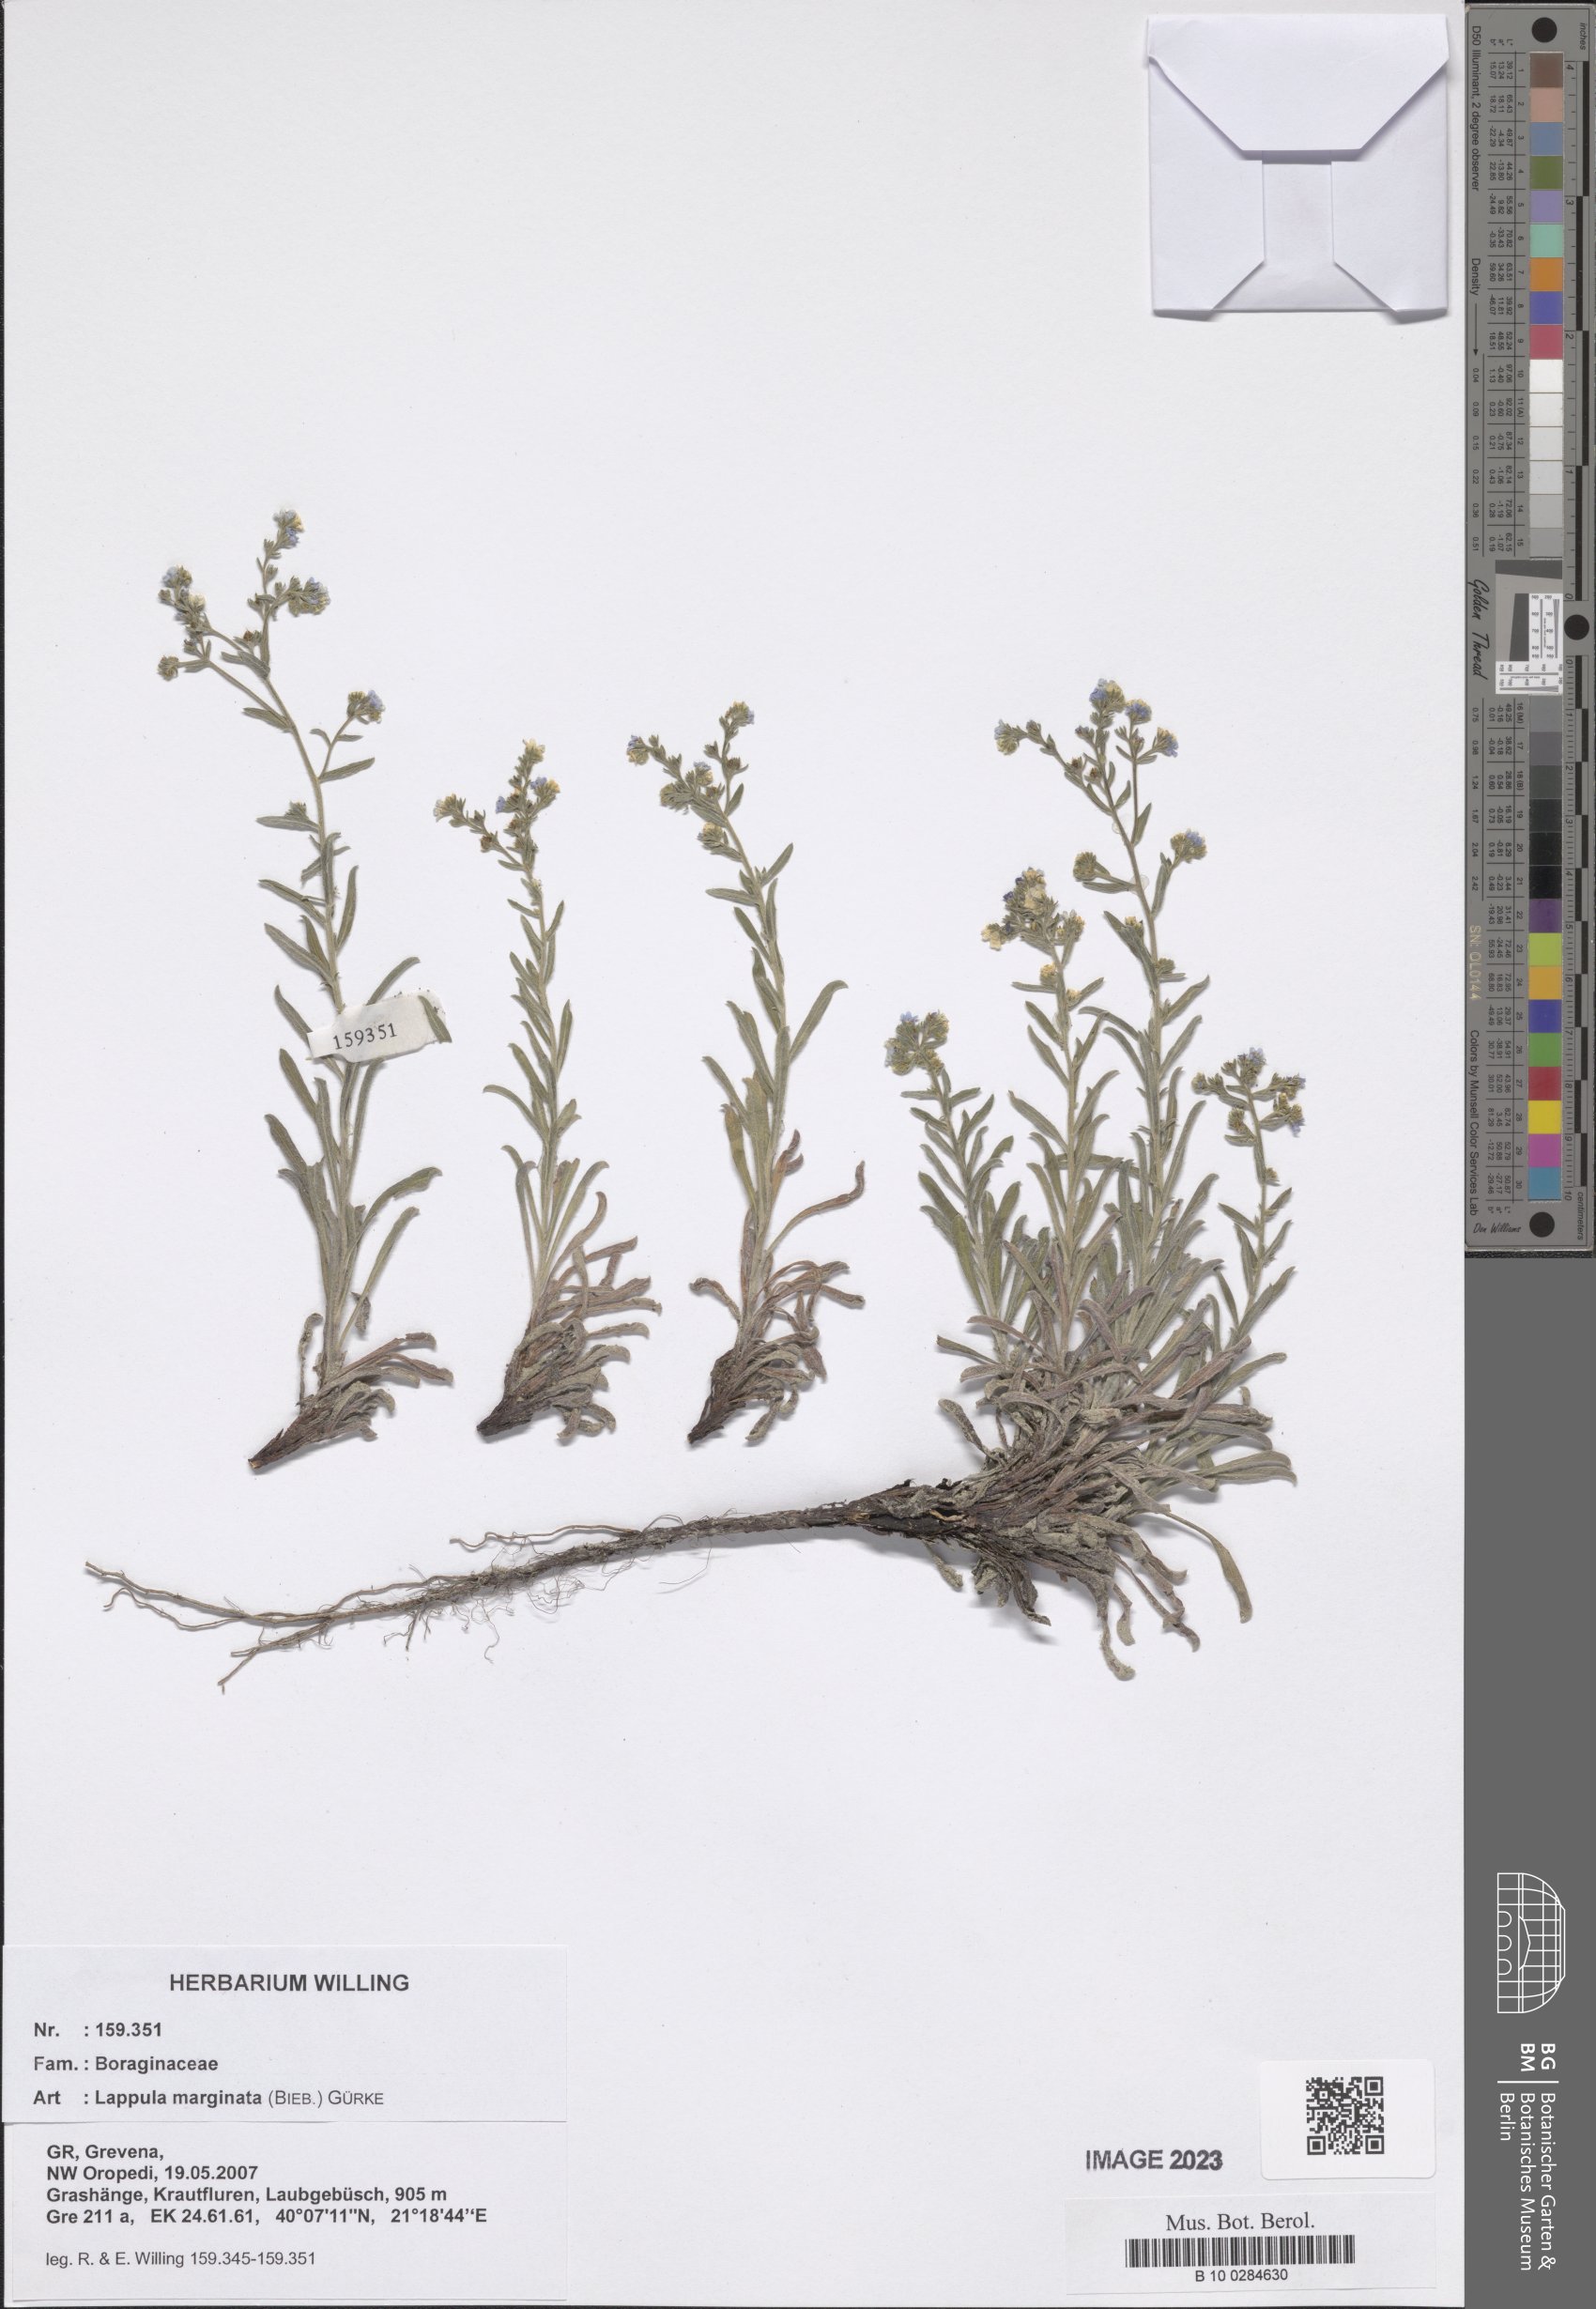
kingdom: Plantae
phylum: Tracheophyta
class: Magnoliopsida
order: Boraginales
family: Boraginaceae
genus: Lappula
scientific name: Lappula marginata
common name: Margined stickseed
